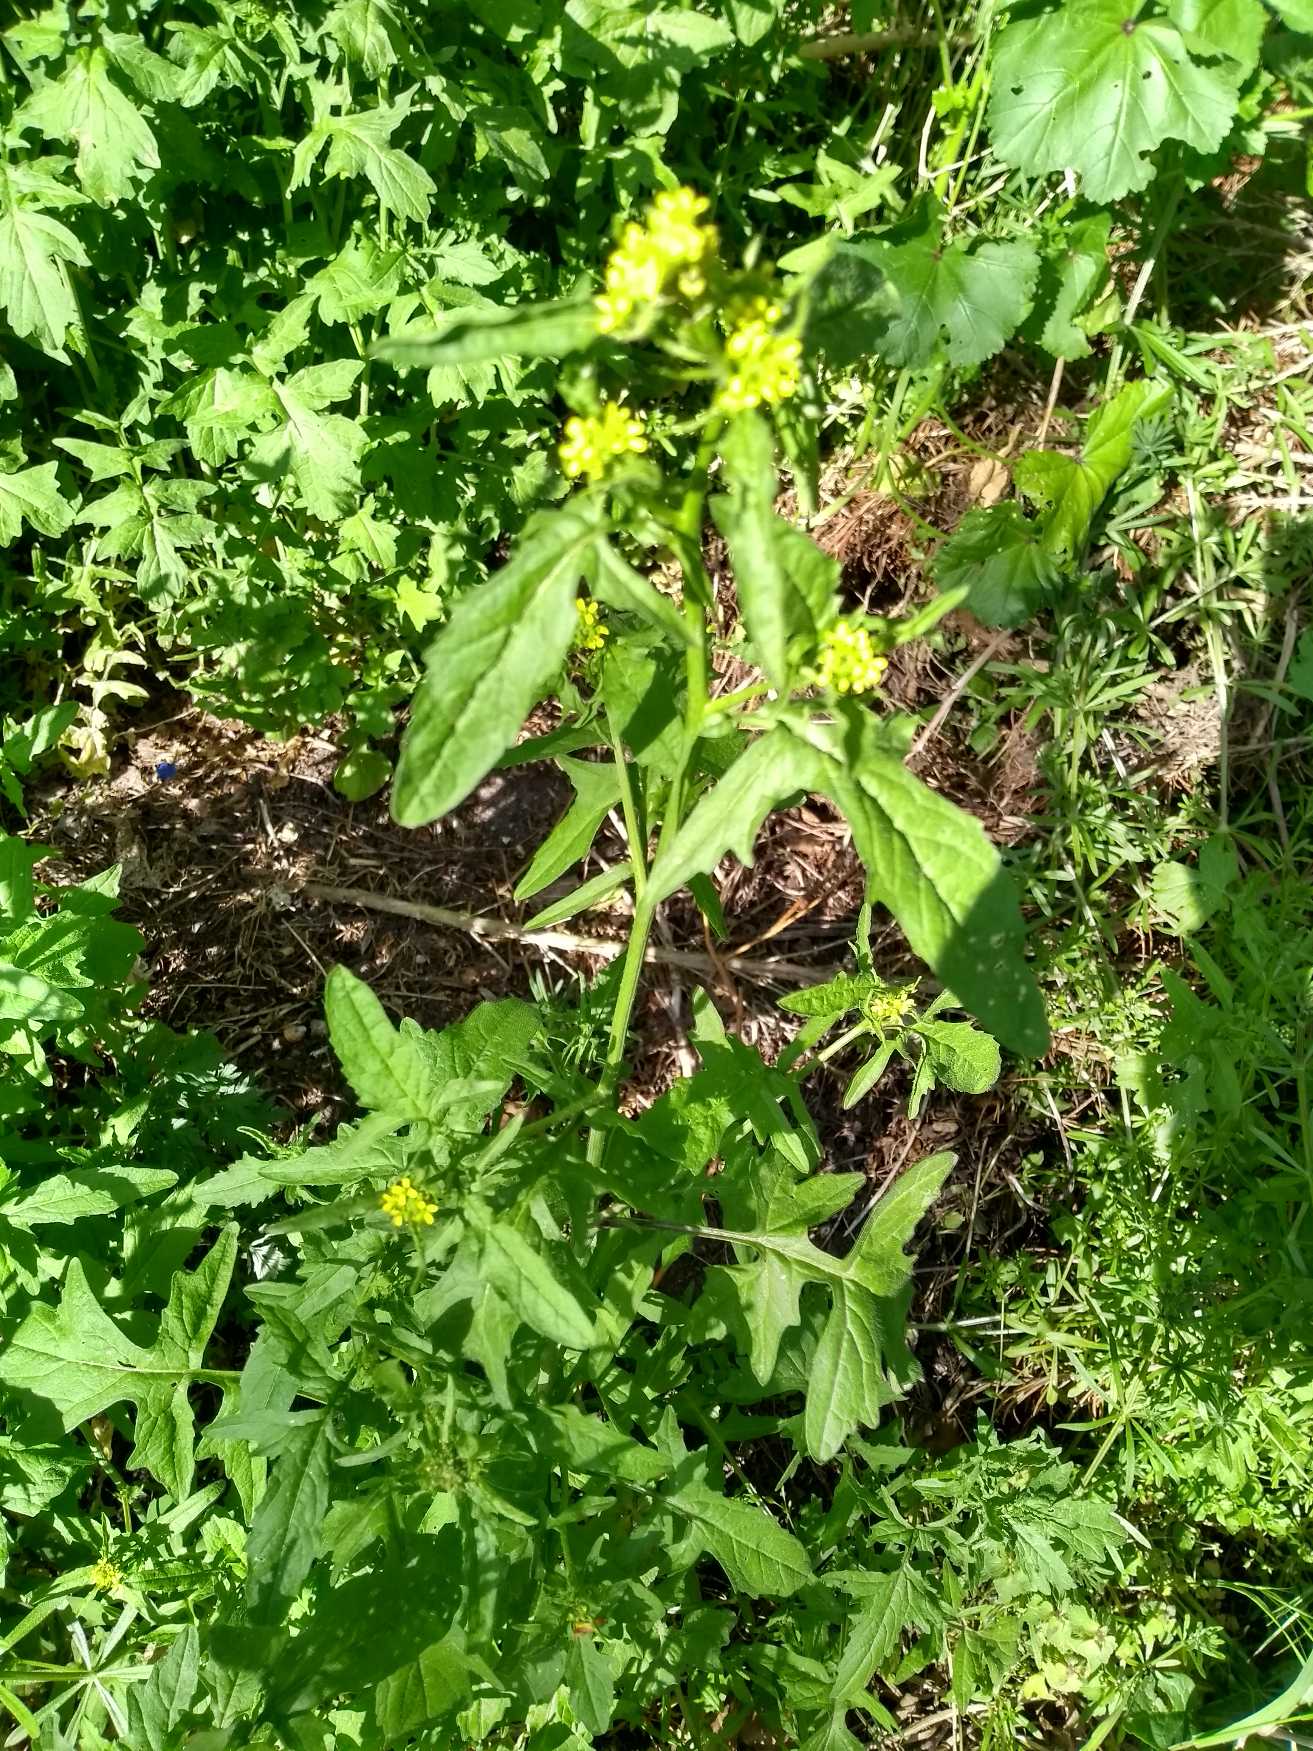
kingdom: Plantae
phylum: Tracheophyta
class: Magnoliopsida
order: Brassicales
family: Brassicaceae
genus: Sisymbrium
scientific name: Sisymbrium officinale
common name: Rank vejsennep
